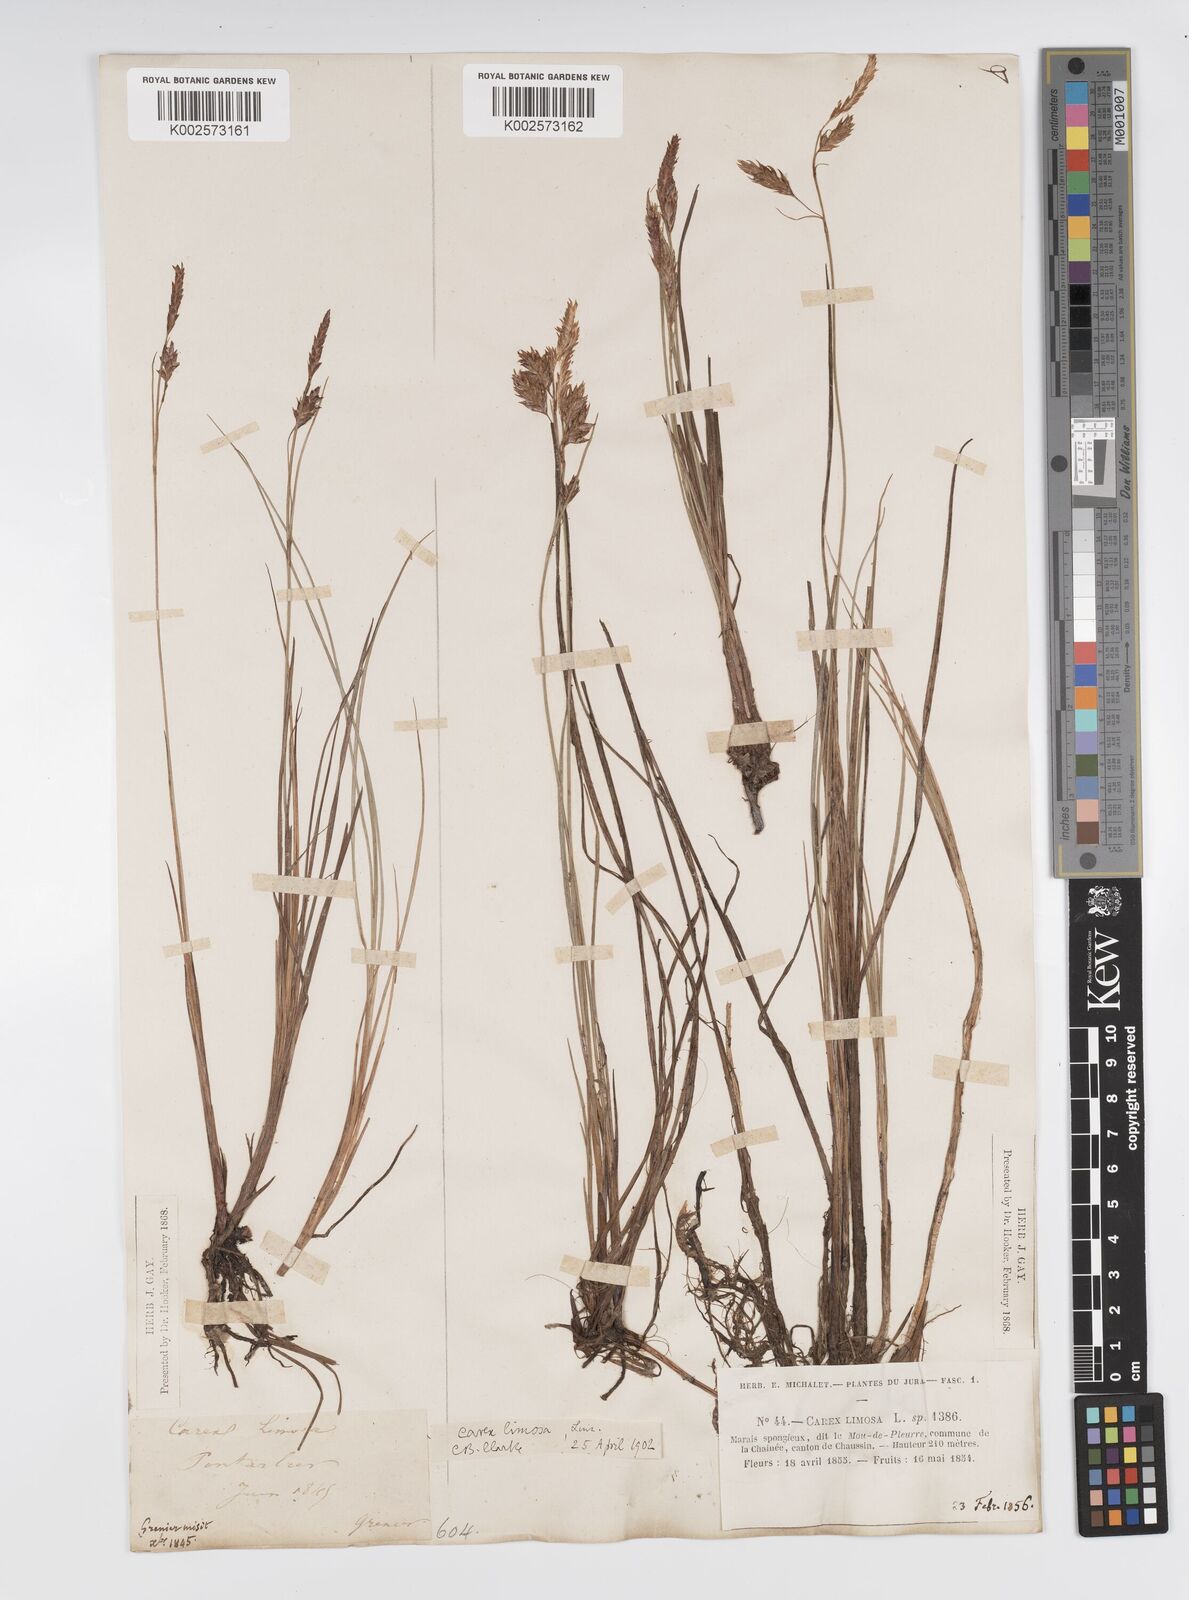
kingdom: Plantae
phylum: Tracheophyta
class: Liliopsida
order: Poales
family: Cyperaceae
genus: Carex
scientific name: Carex limosa
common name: Bog sedge
